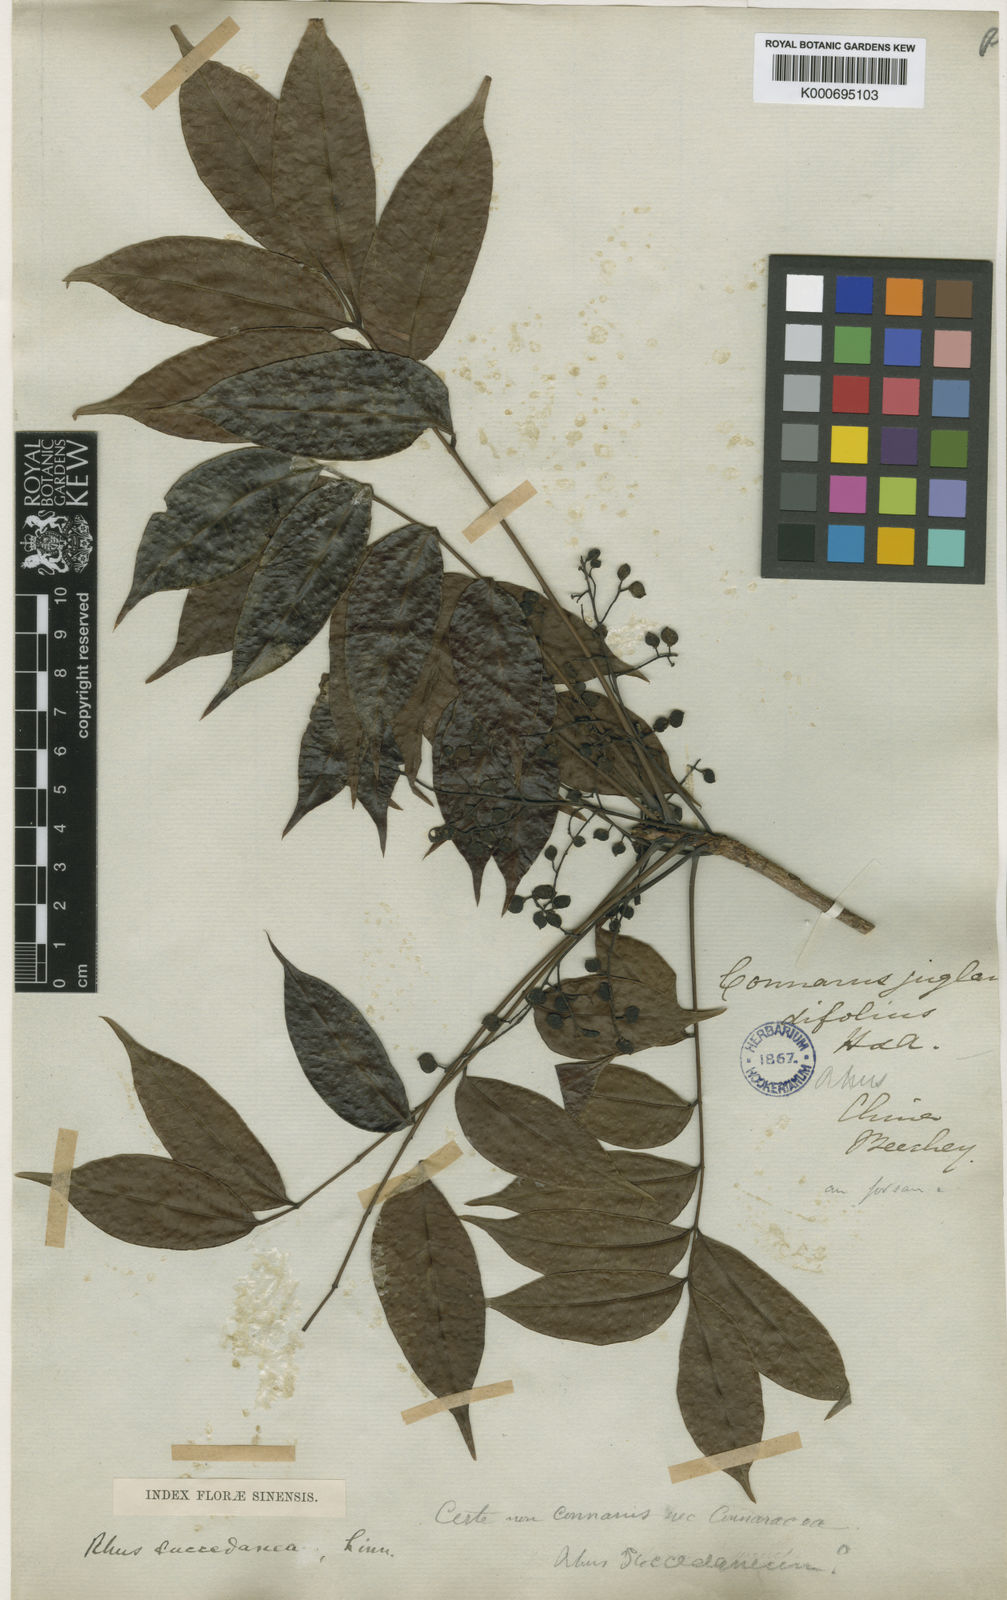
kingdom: Plantae
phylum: Tracheophyta
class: Magnoliopsida
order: Sapindales
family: Anacardiaceae
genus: Toxicodendron
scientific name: Toxicodendron succedaneum
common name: Wax tree
